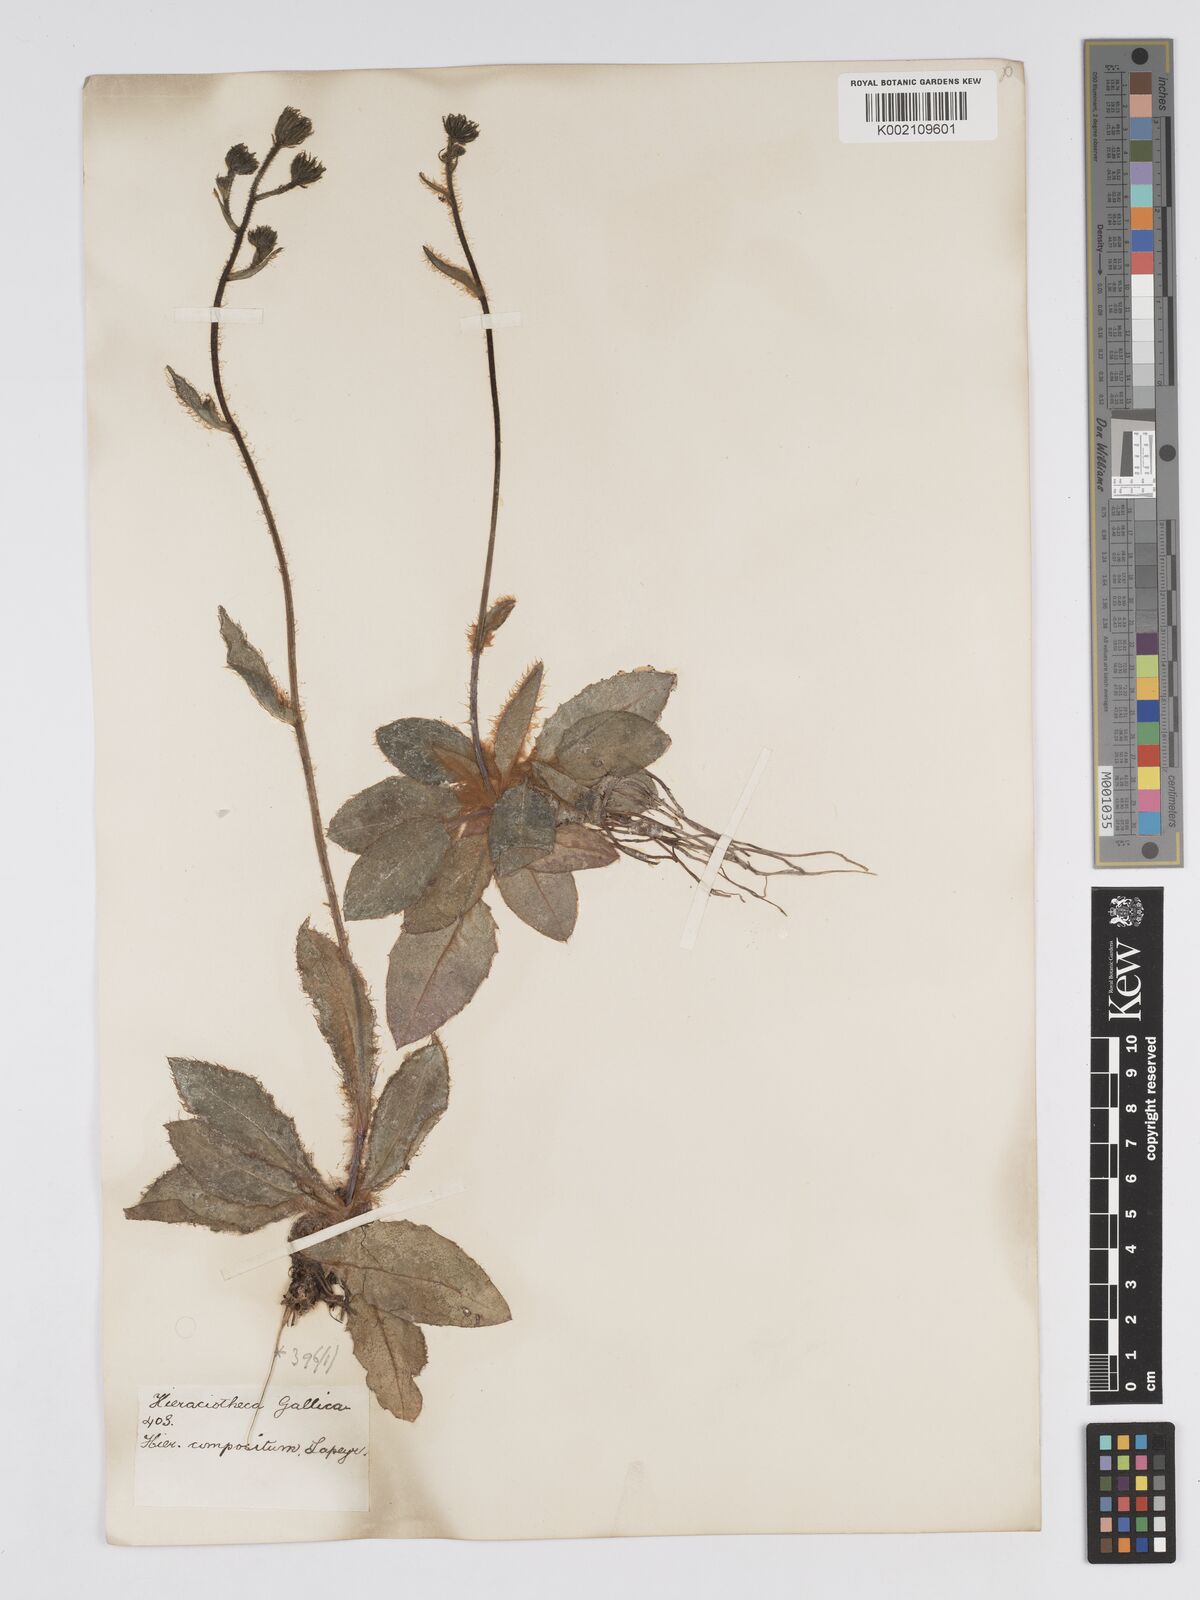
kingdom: Plantae
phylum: Tracheophyta
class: Magnoliopsida
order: Asterales
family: Asteraceae
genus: Hieracium
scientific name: Hieracium compositum
